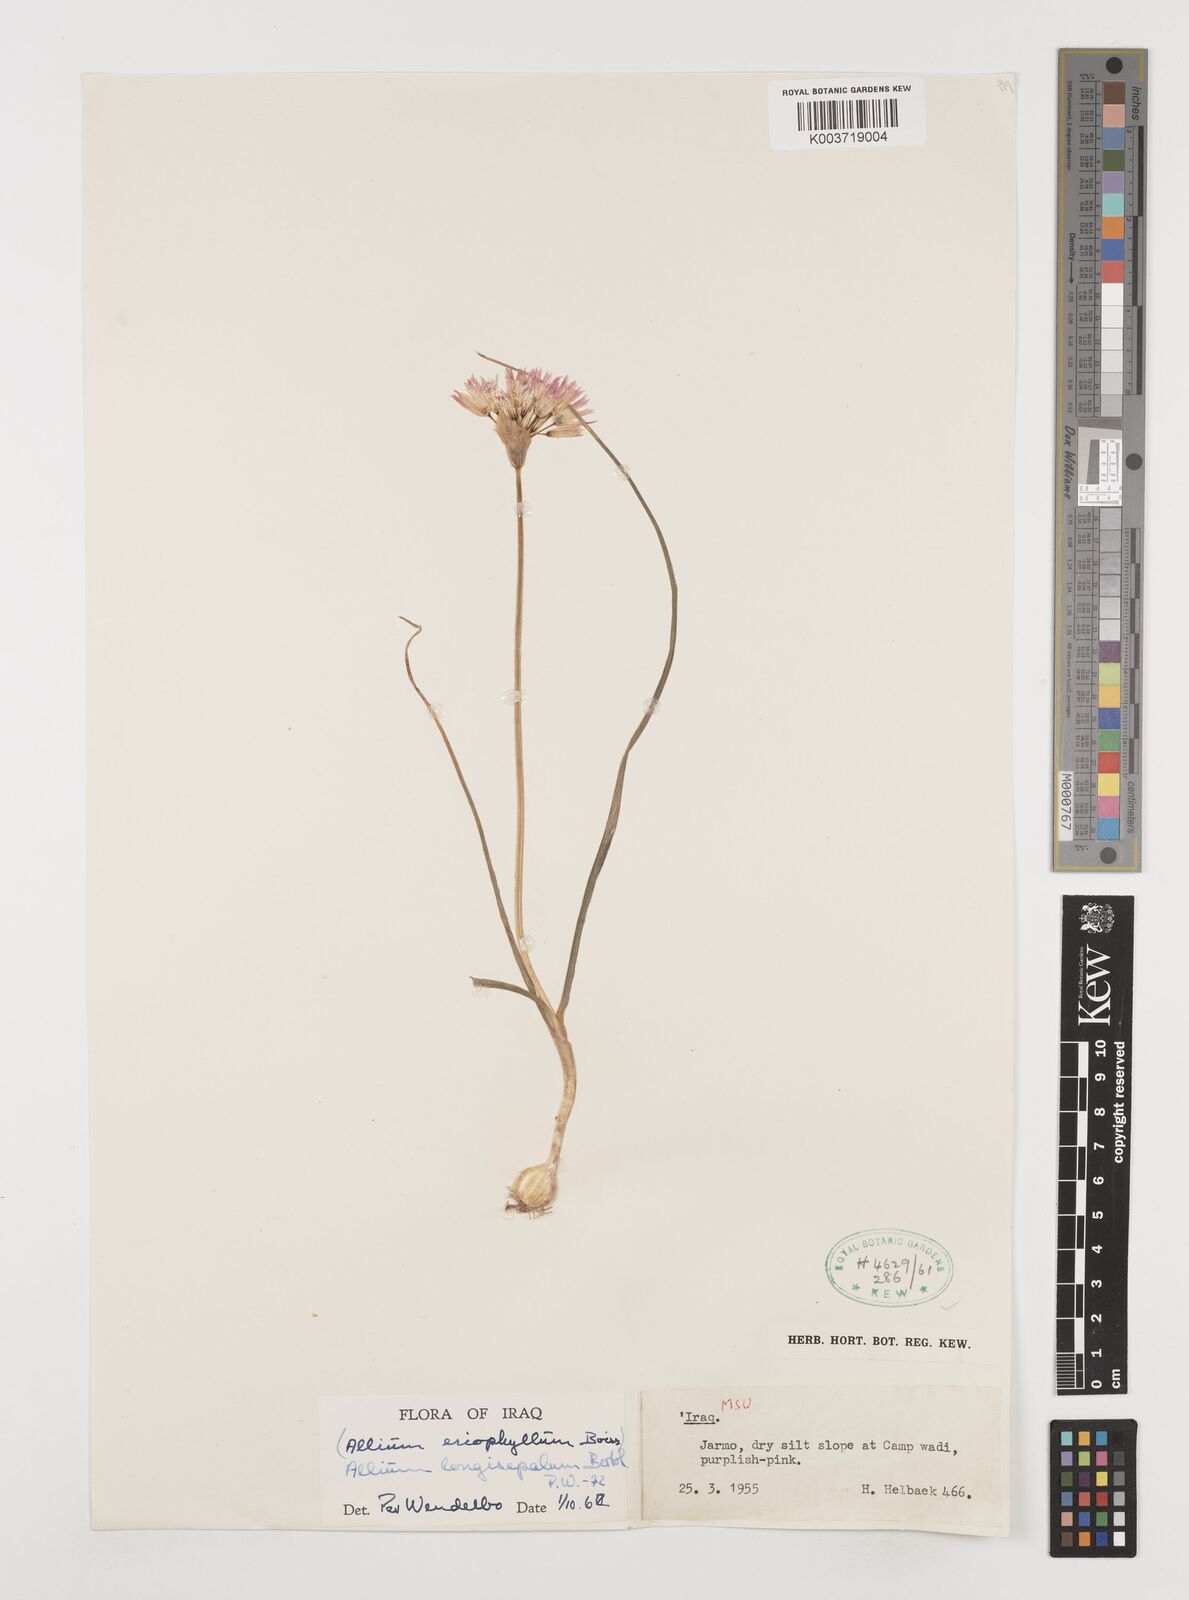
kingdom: Plantae
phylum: Tracheophyta
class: Liliopsida
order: Asparagales
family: Amaryllidaceae
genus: Allium
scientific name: Allium longisepalum
